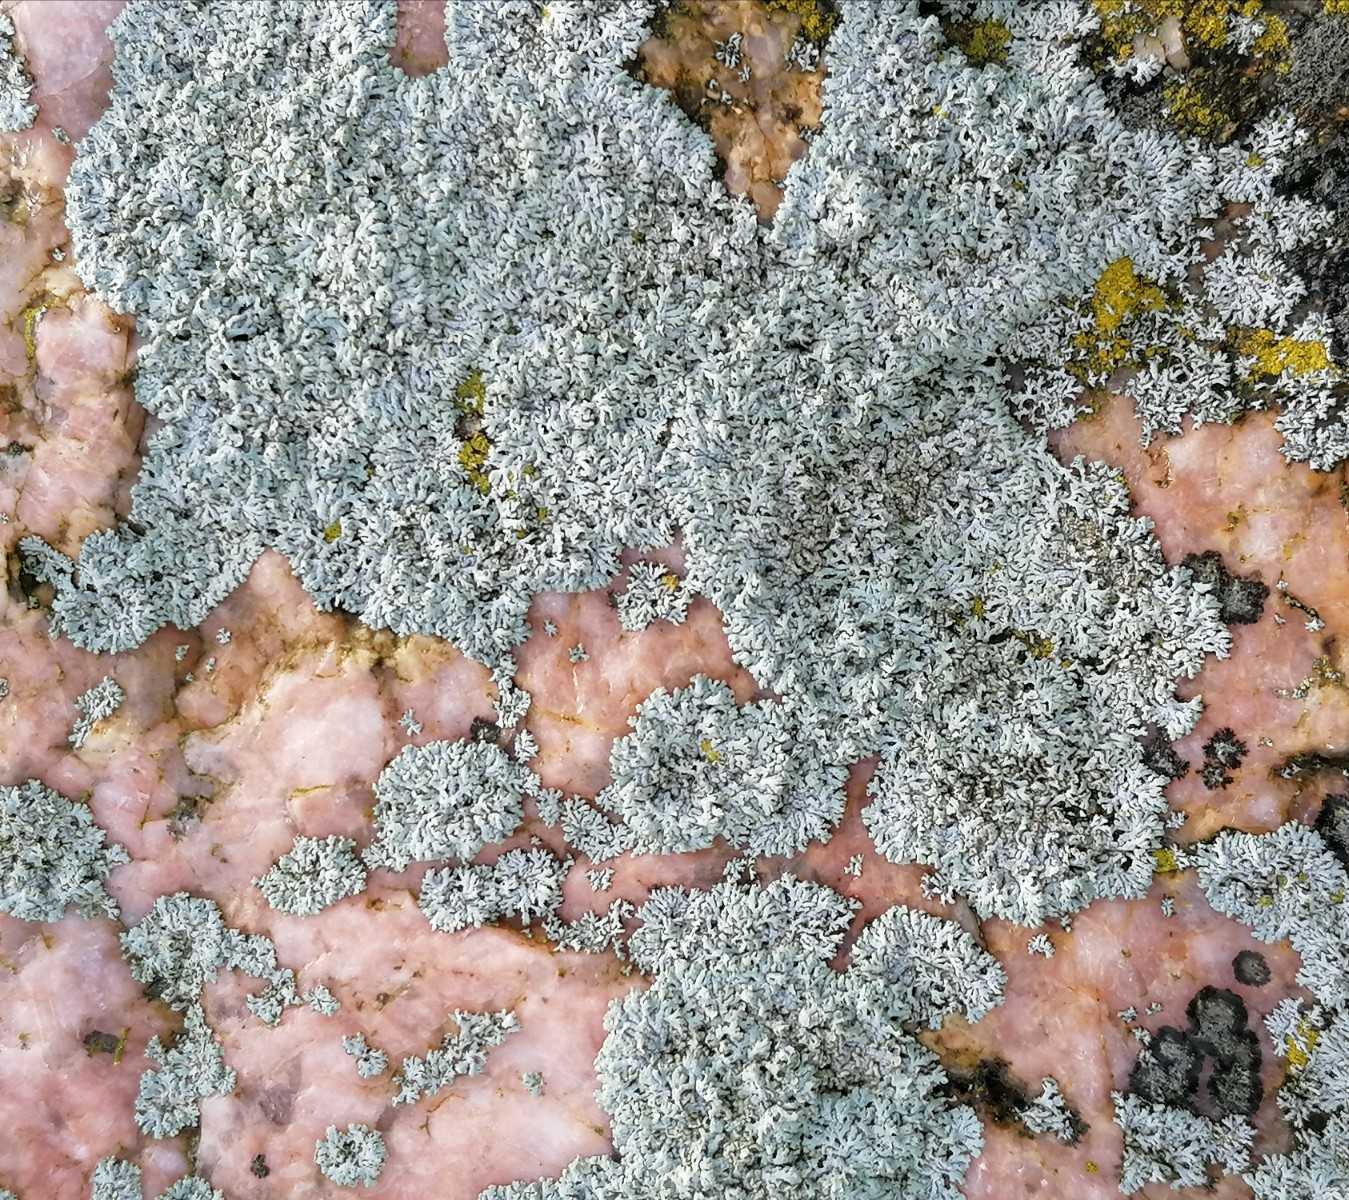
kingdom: Fungi
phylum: Ascomycota
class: Lecanoromycetes
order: Caliciales
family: Physciaceae
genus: Physcia
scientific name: Physcia dubia
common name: fuglestens-rosetlav
